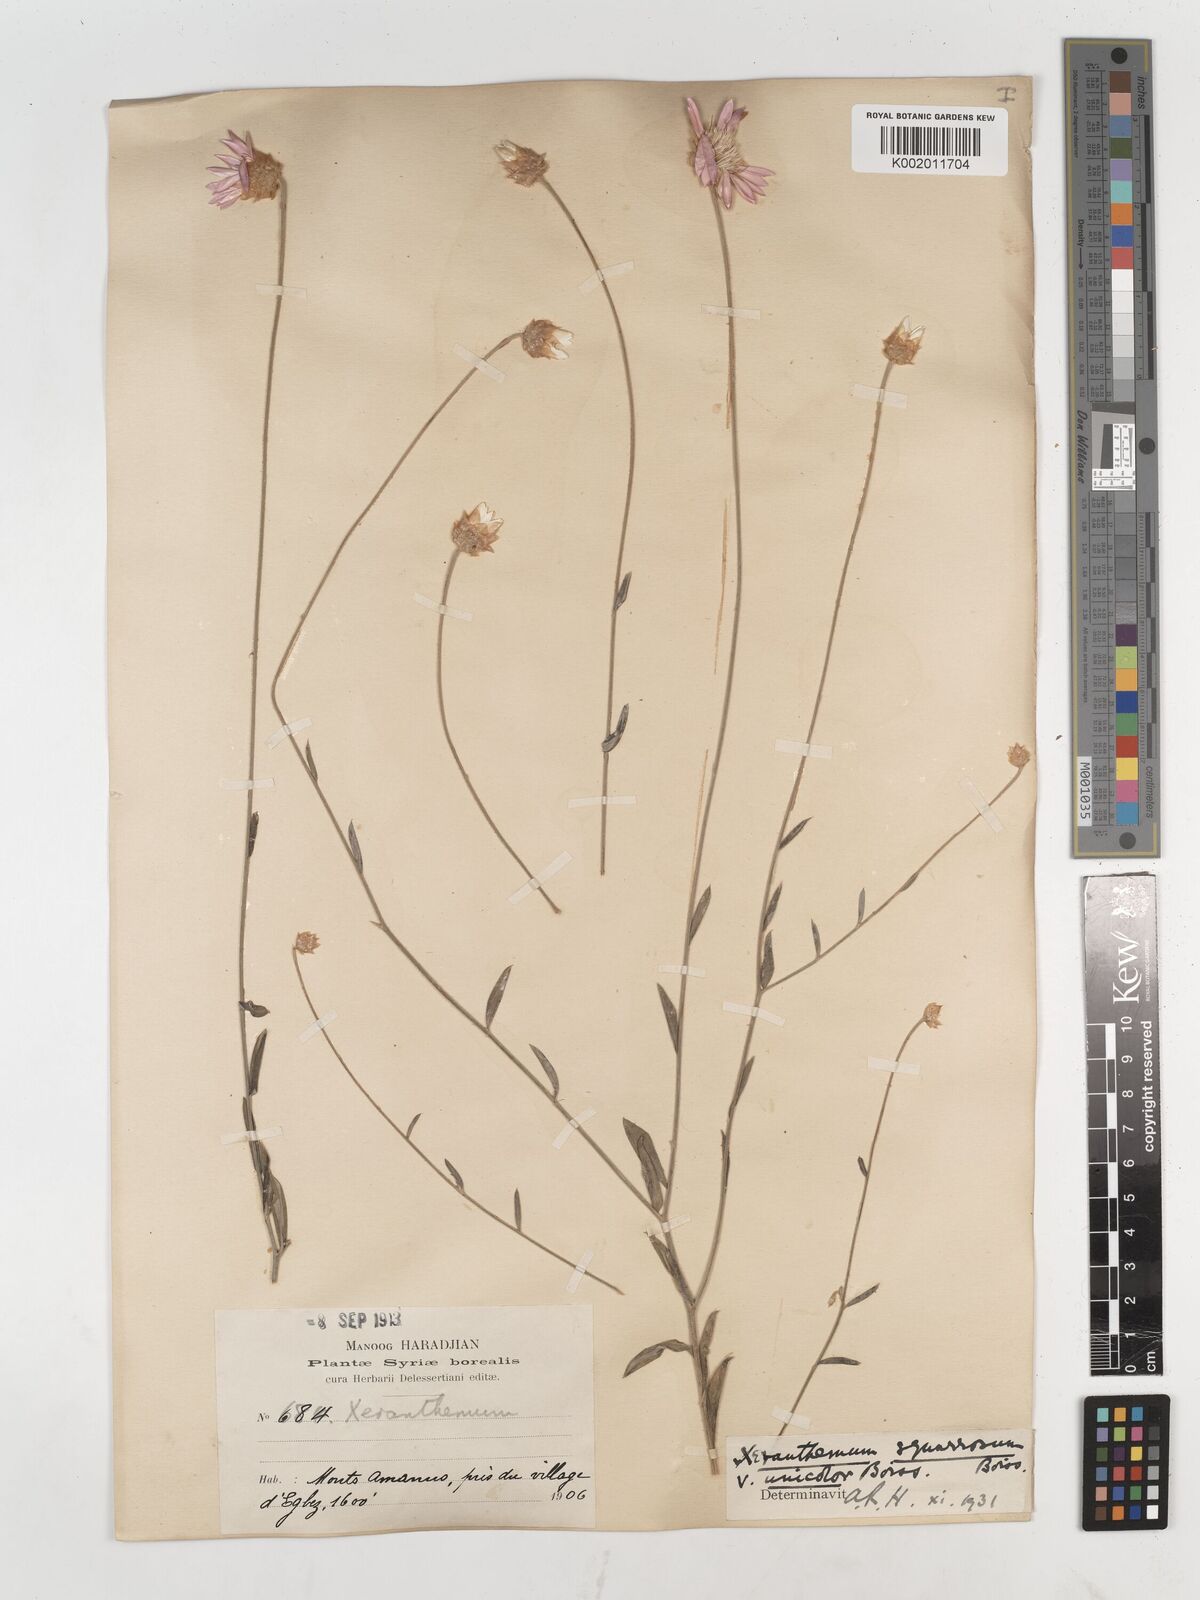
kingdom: Plantae
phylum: Tracheophyta
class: Magnoliopsida
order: Asterales
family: Asteraceae
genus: Xeranthemum
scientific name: Xeranthemum squarrosum
